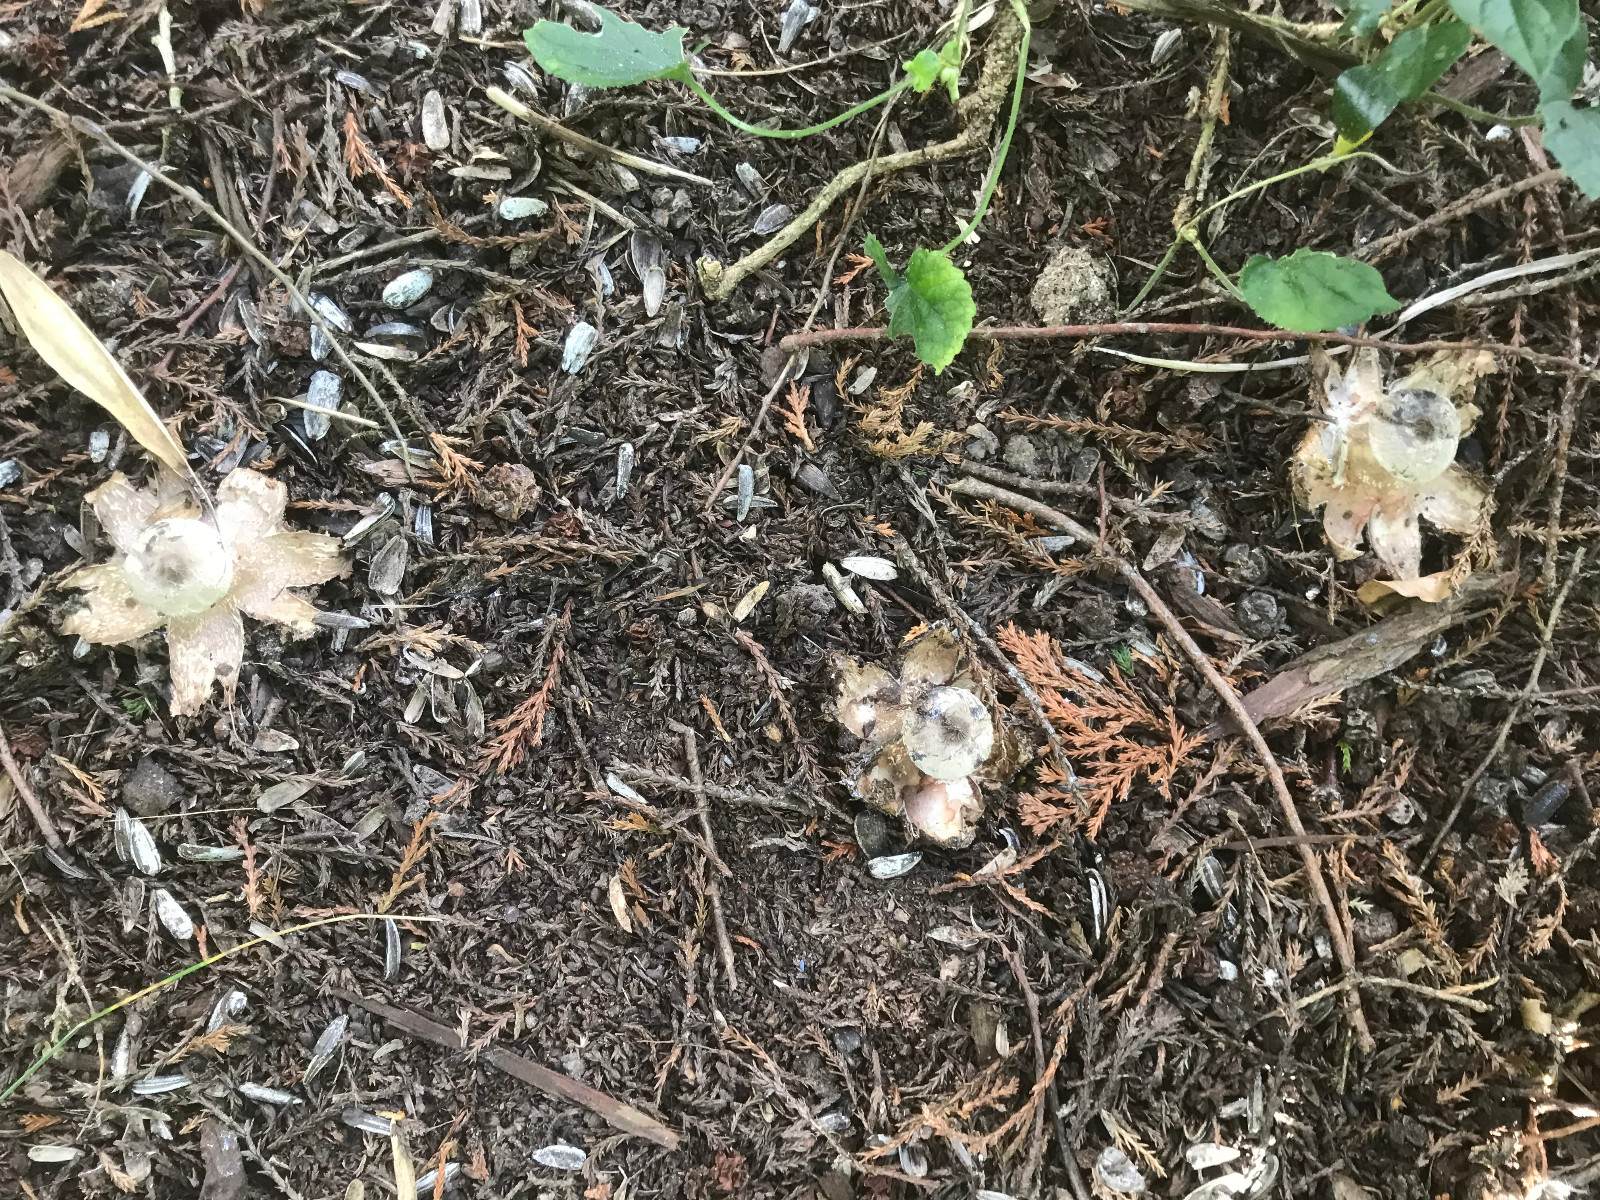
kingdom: Fungi
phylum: Basidiomycota
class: Agaricomycetes
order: Geastrales
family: Geastraceae
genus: Geastrum
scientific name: Geastrum striatum
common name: krave-stjernebold
